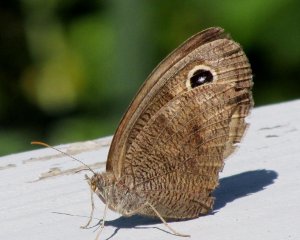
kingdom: Animalia
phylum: Arthropoda
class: Insecta
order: Lepidoptera
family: Nymphalidae
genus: Cercyonis
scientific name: Cercyonis pegala
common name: Common Wood-Nymph
